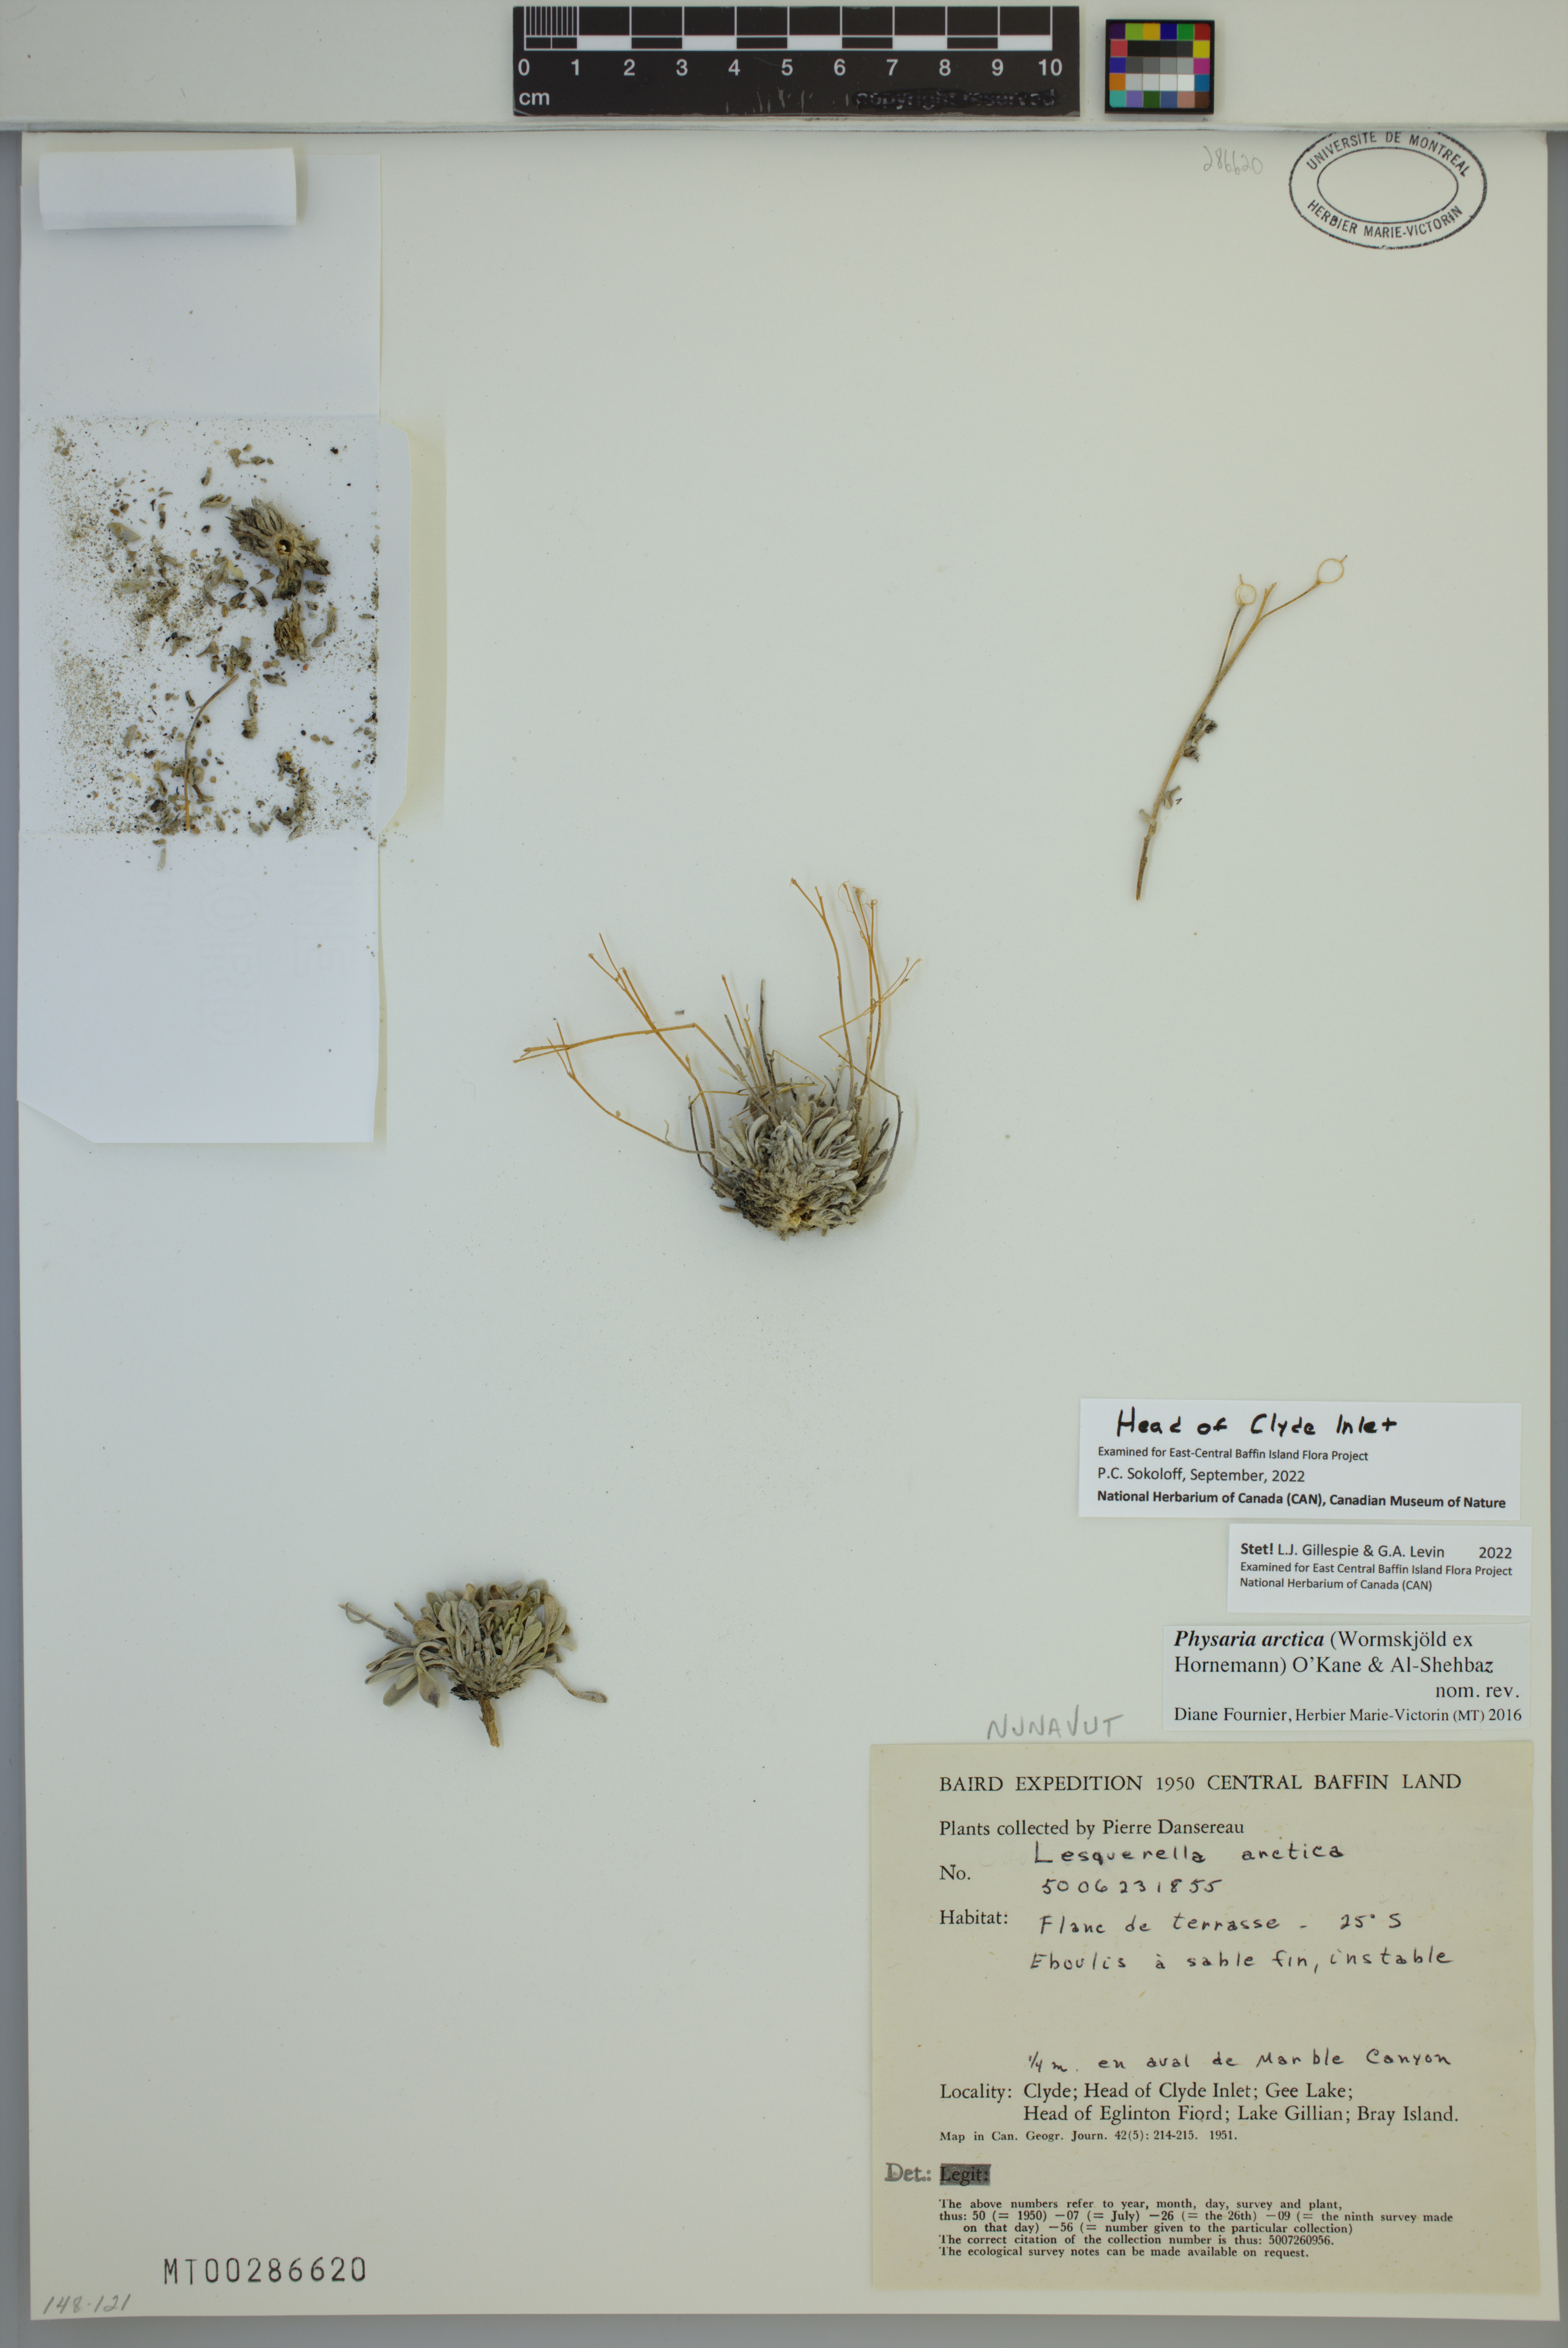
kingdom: Plantae
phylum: Tracheophyta
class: Magnoliopsida
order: Brassicales
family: Brassicaceae
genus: Physaria
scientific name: Physaria arctica
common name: Arctic bladderpod
